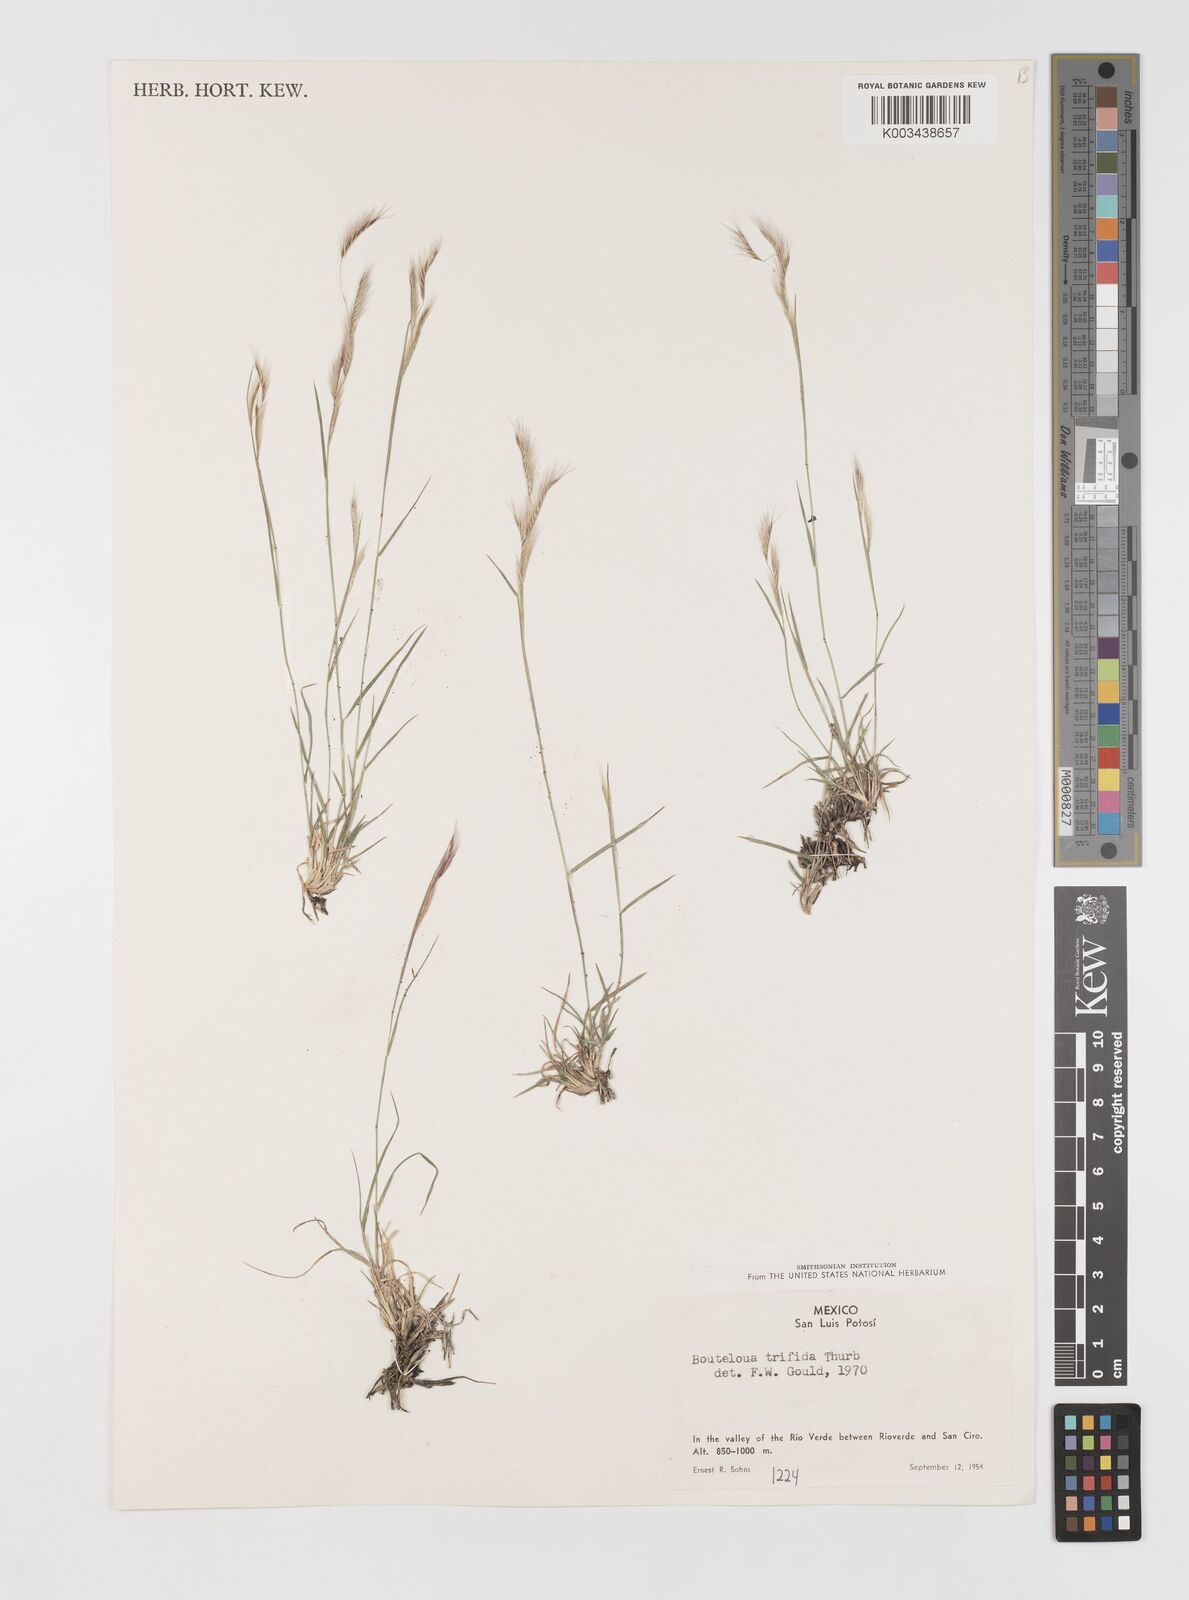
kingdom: Plantae
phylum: Tracheophyta
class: Liliopsida
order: Poales
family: Poaceae
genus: Bouteloua
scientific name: Bouteloua
